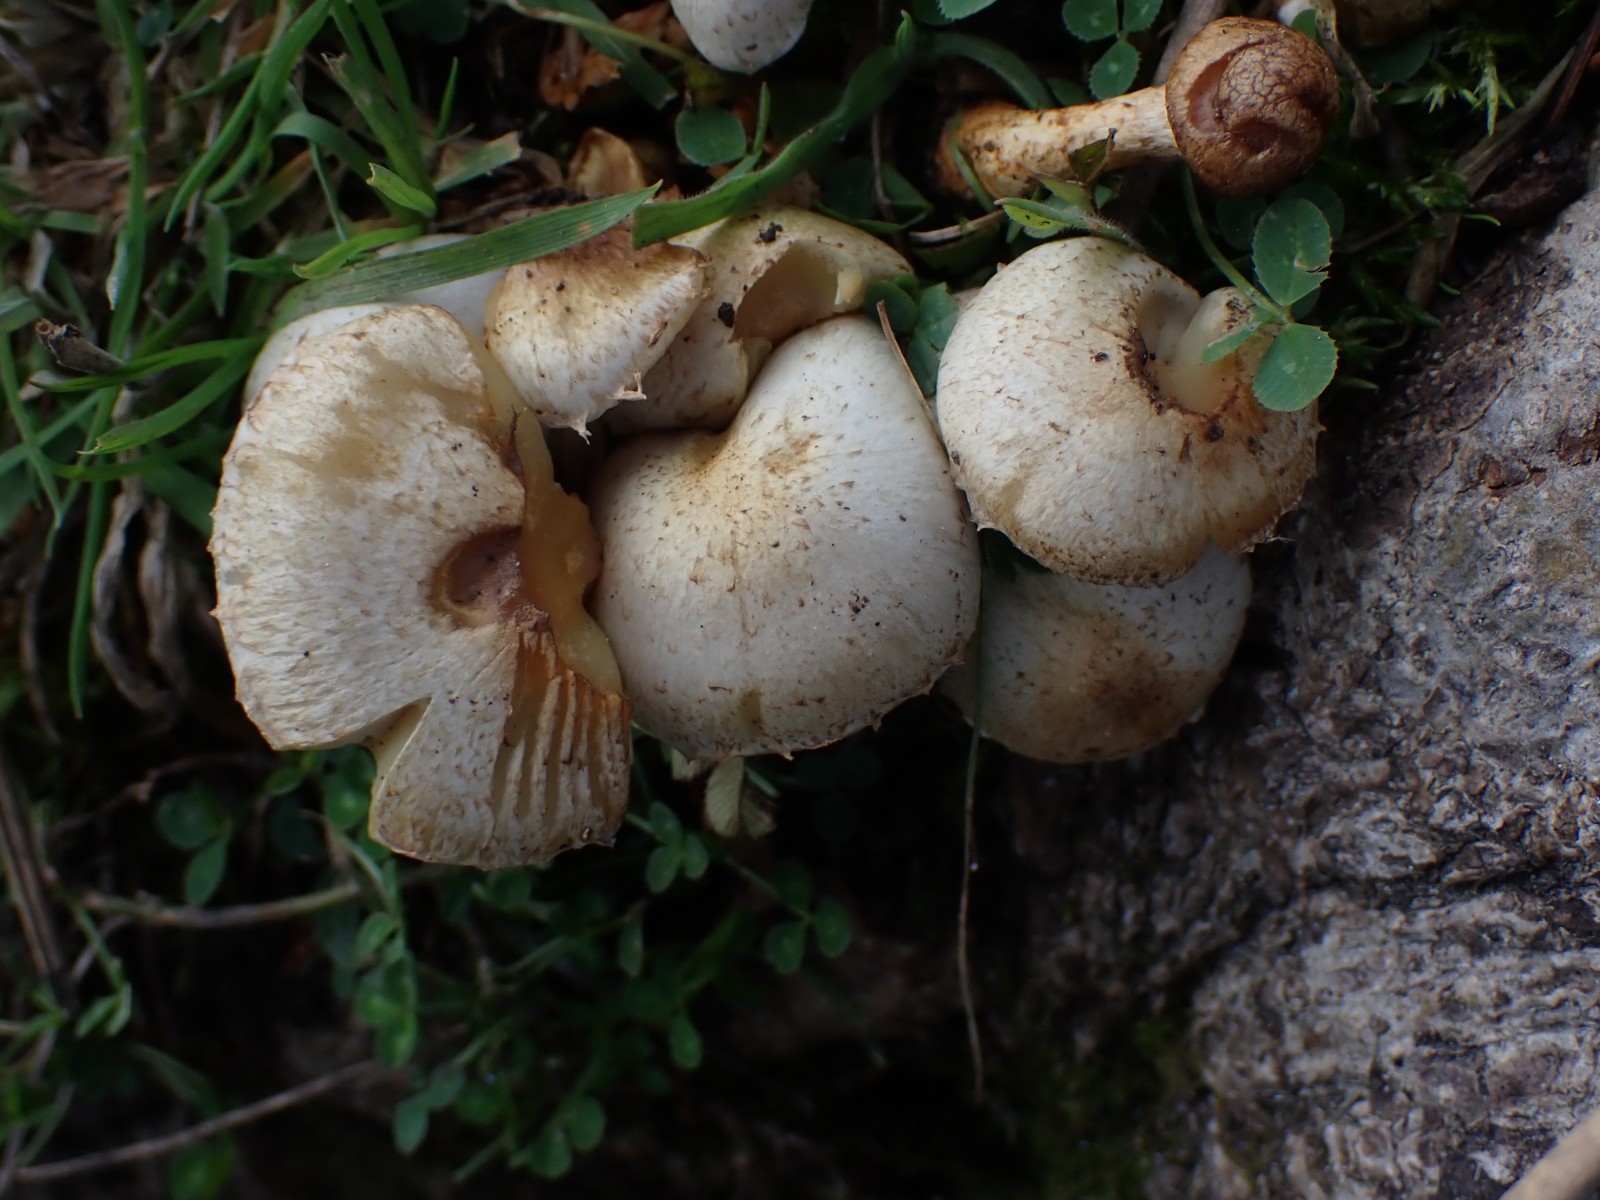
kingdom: Fungi
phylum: Basidiomycota
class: Agaricomycetes
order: Agaricales
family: Strophariaceae
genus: Pholiota
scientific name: Pholiota gummosa
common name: grøngul skælhat
